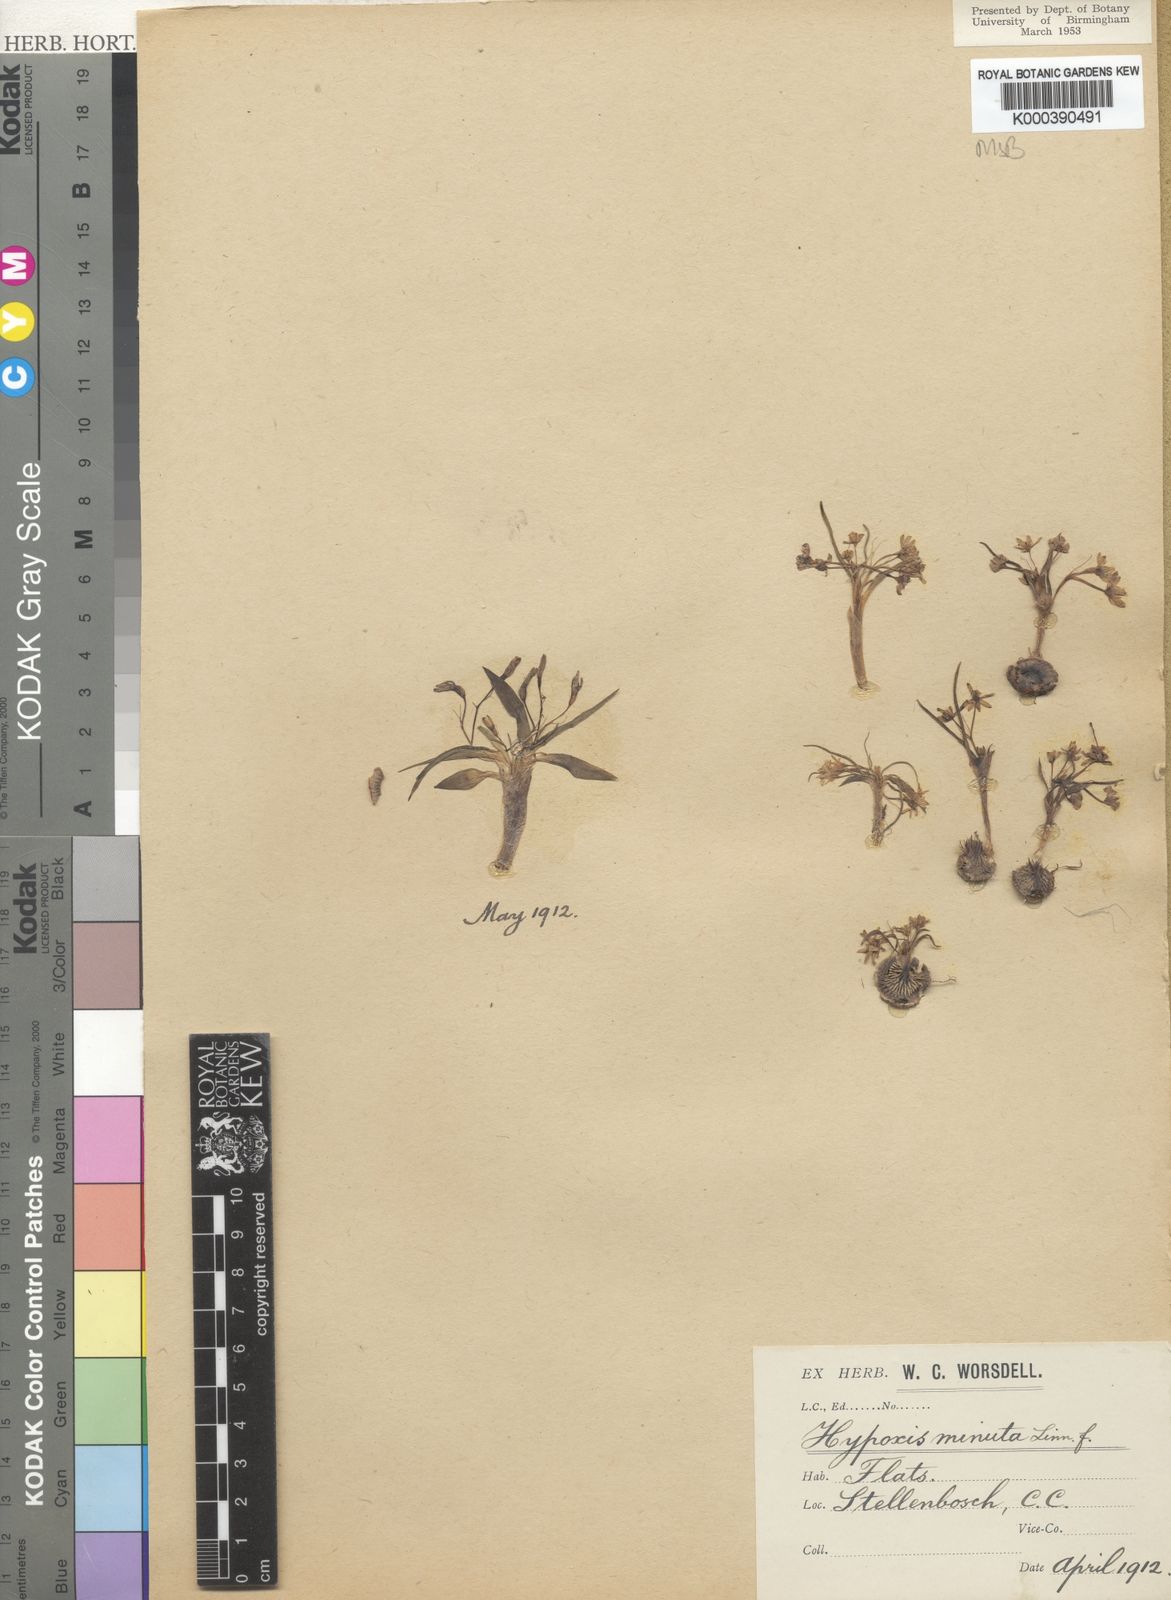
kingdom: Plantae
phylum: Tracheophyta
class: Liliopsida
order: Asparagales
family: Hypoxidaceae
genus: Pauridia
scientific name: Pauridia pygmaea
